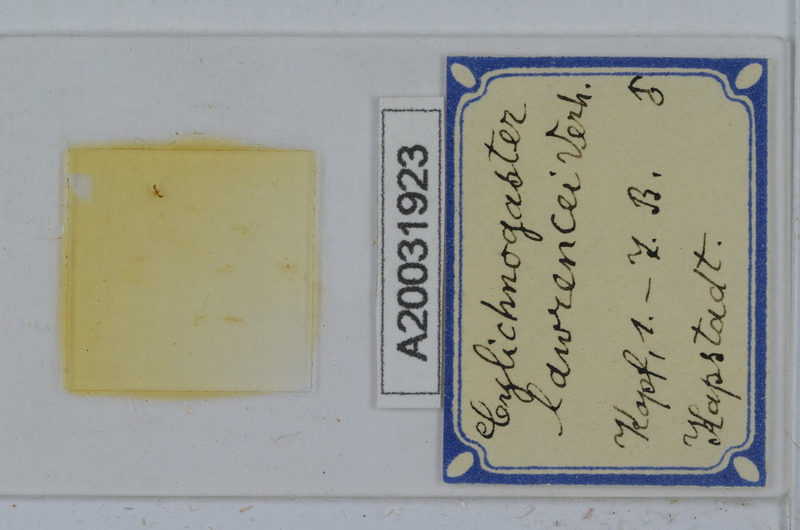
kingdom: Animalia
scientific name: Animalia
